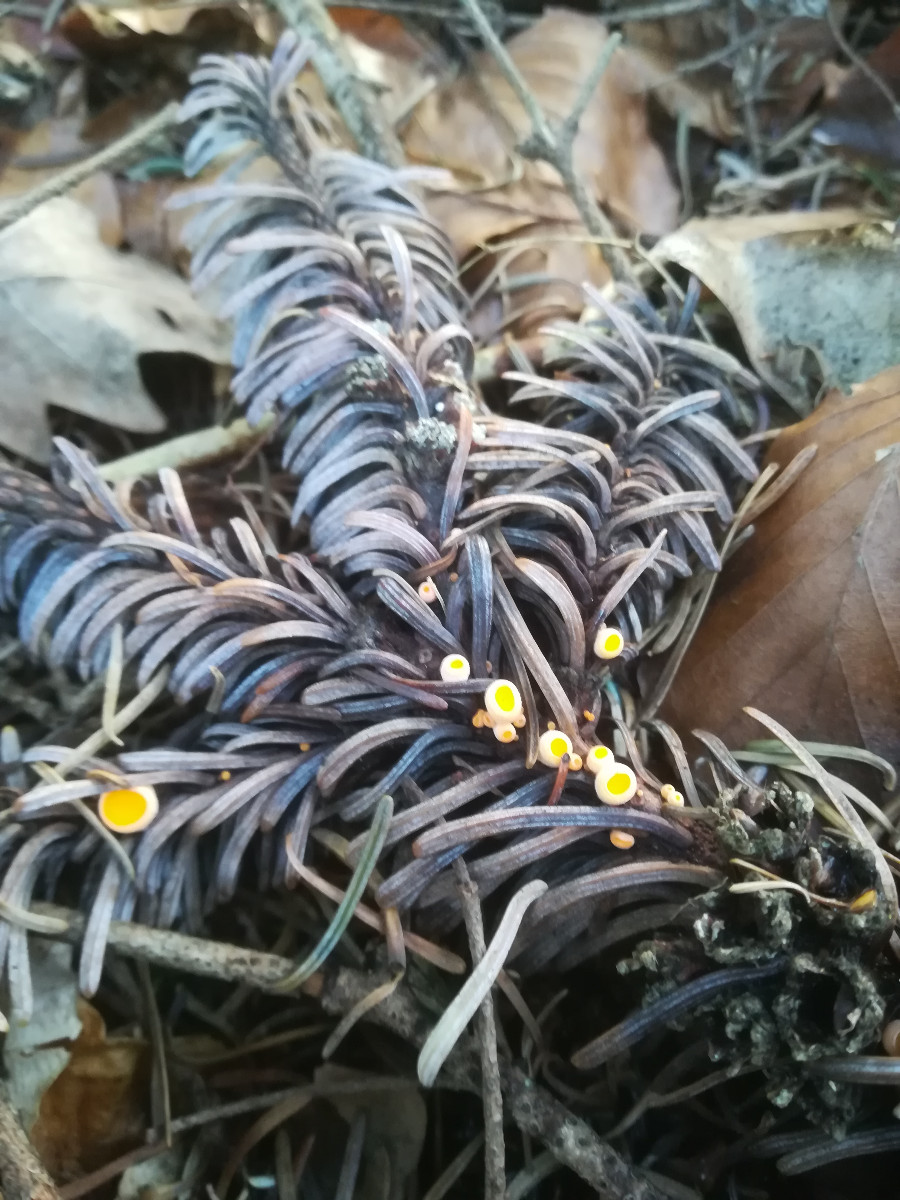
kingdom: Fungi
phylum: Ascomycota
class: Pezizomycetes
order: Pezizales
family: Sarcoscyphaceae
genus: Pithya
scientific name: Pithya vulgaris
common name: stor dukatbæger
